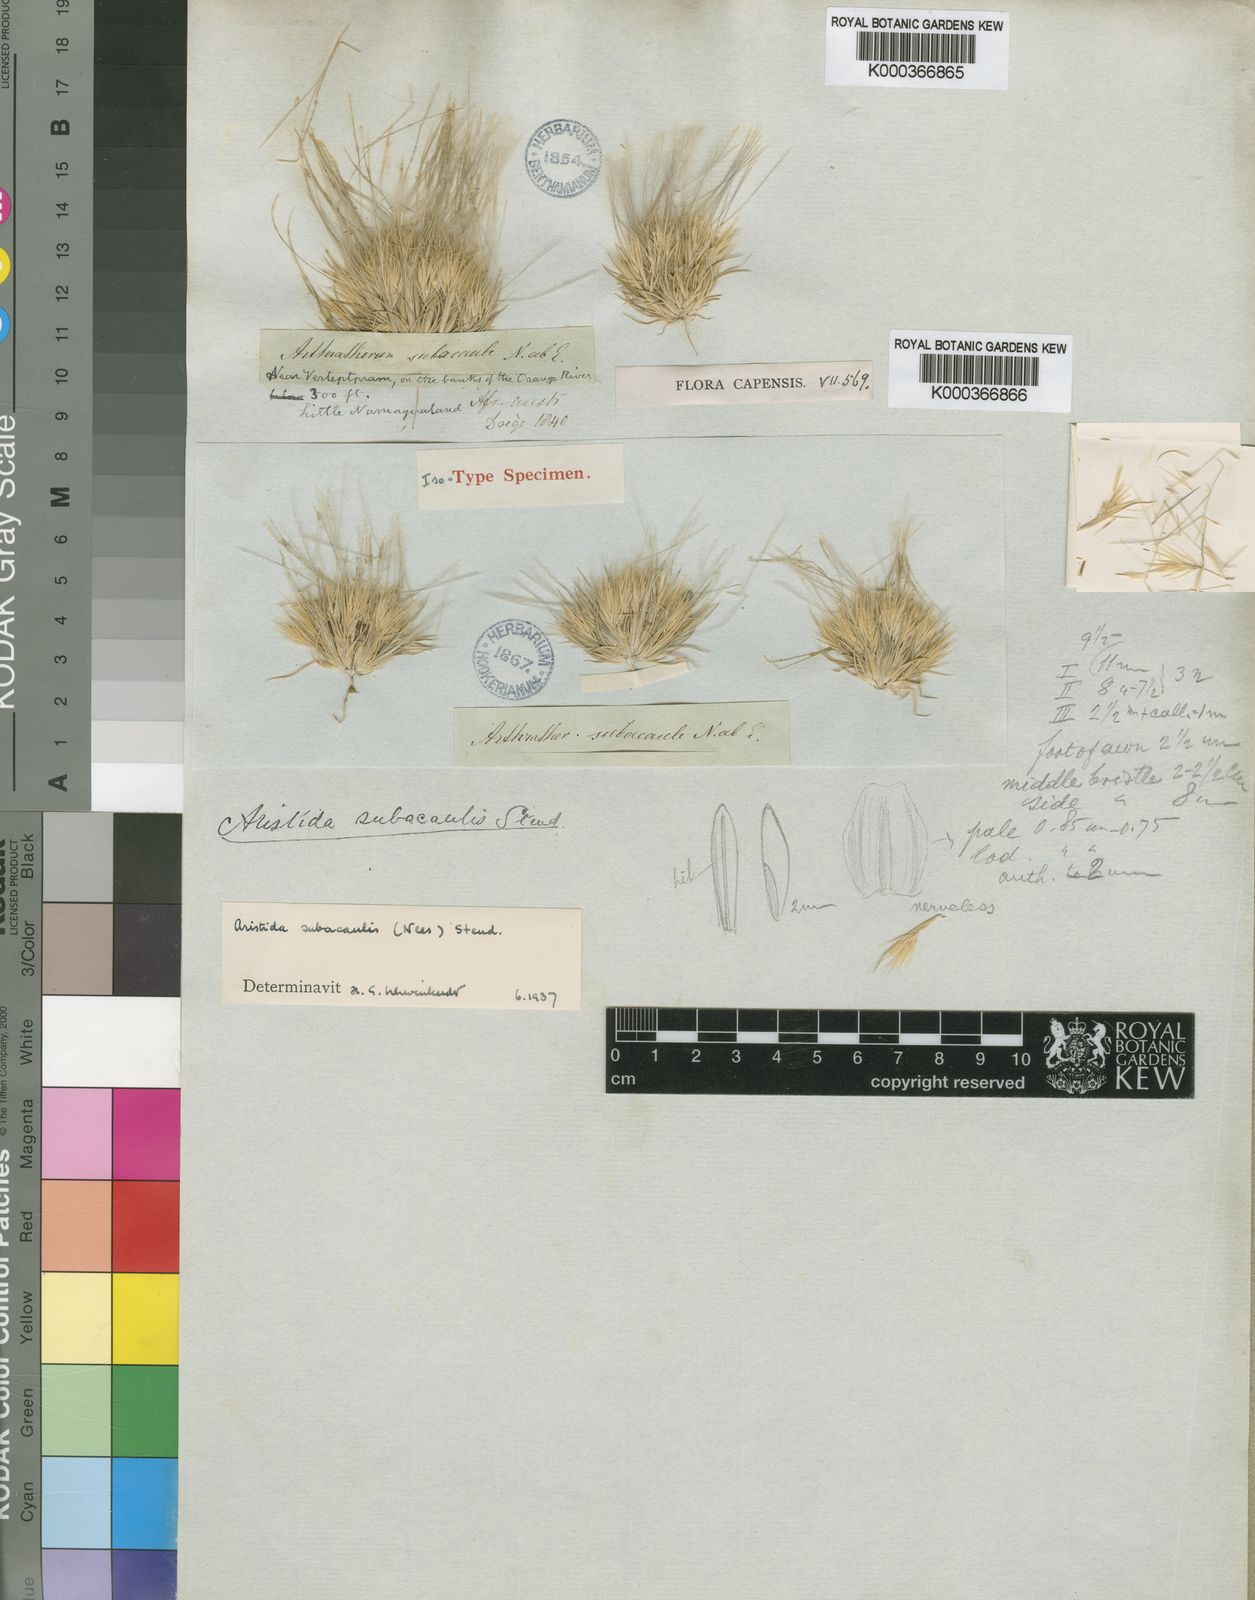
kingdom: Plantae
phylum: Tracheophyta
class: Liliopsida
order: Poales
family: Poaceae
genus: Stipagrostis
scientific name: Stipagrostis subacaulis
